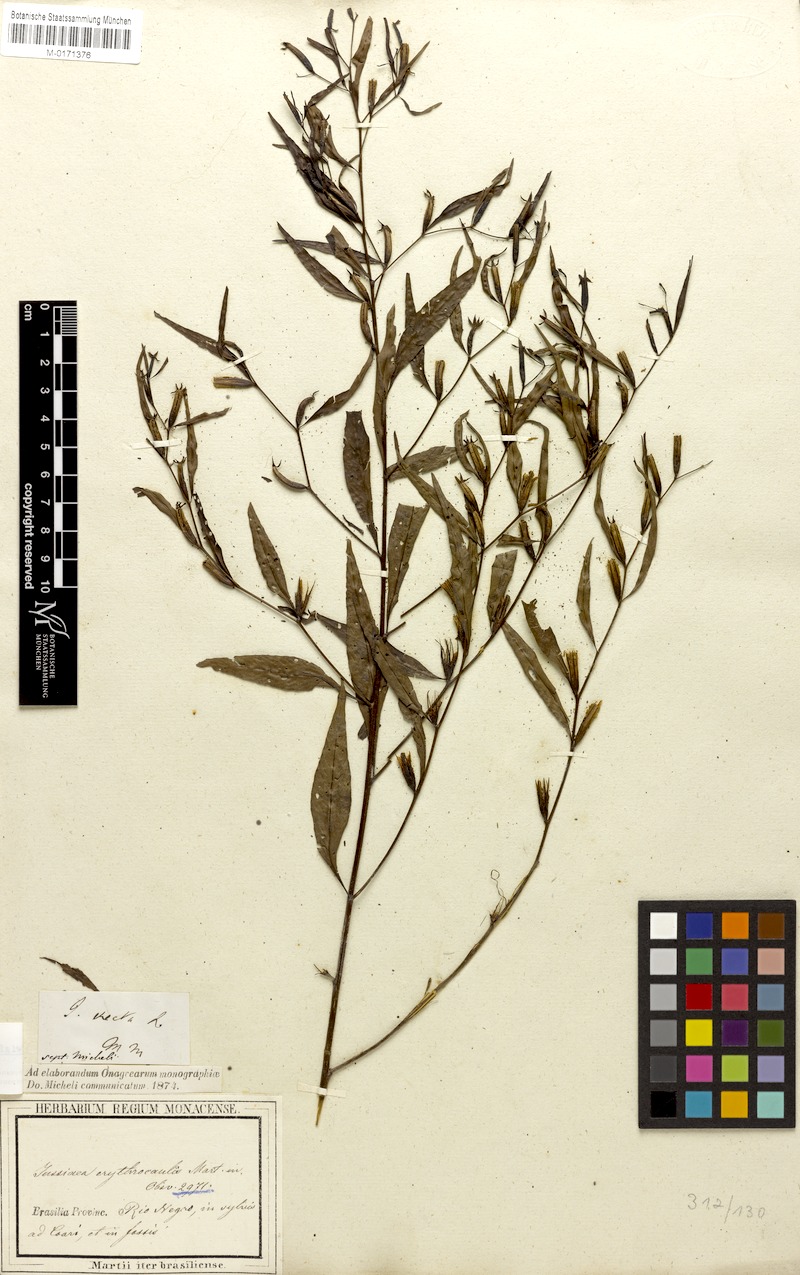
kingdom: Plantae
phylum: Tracheophyta
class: Magnoliopsida
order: Myrtales
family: Onagraceae
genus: Ludwigia
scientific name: Ludwigia erecta
